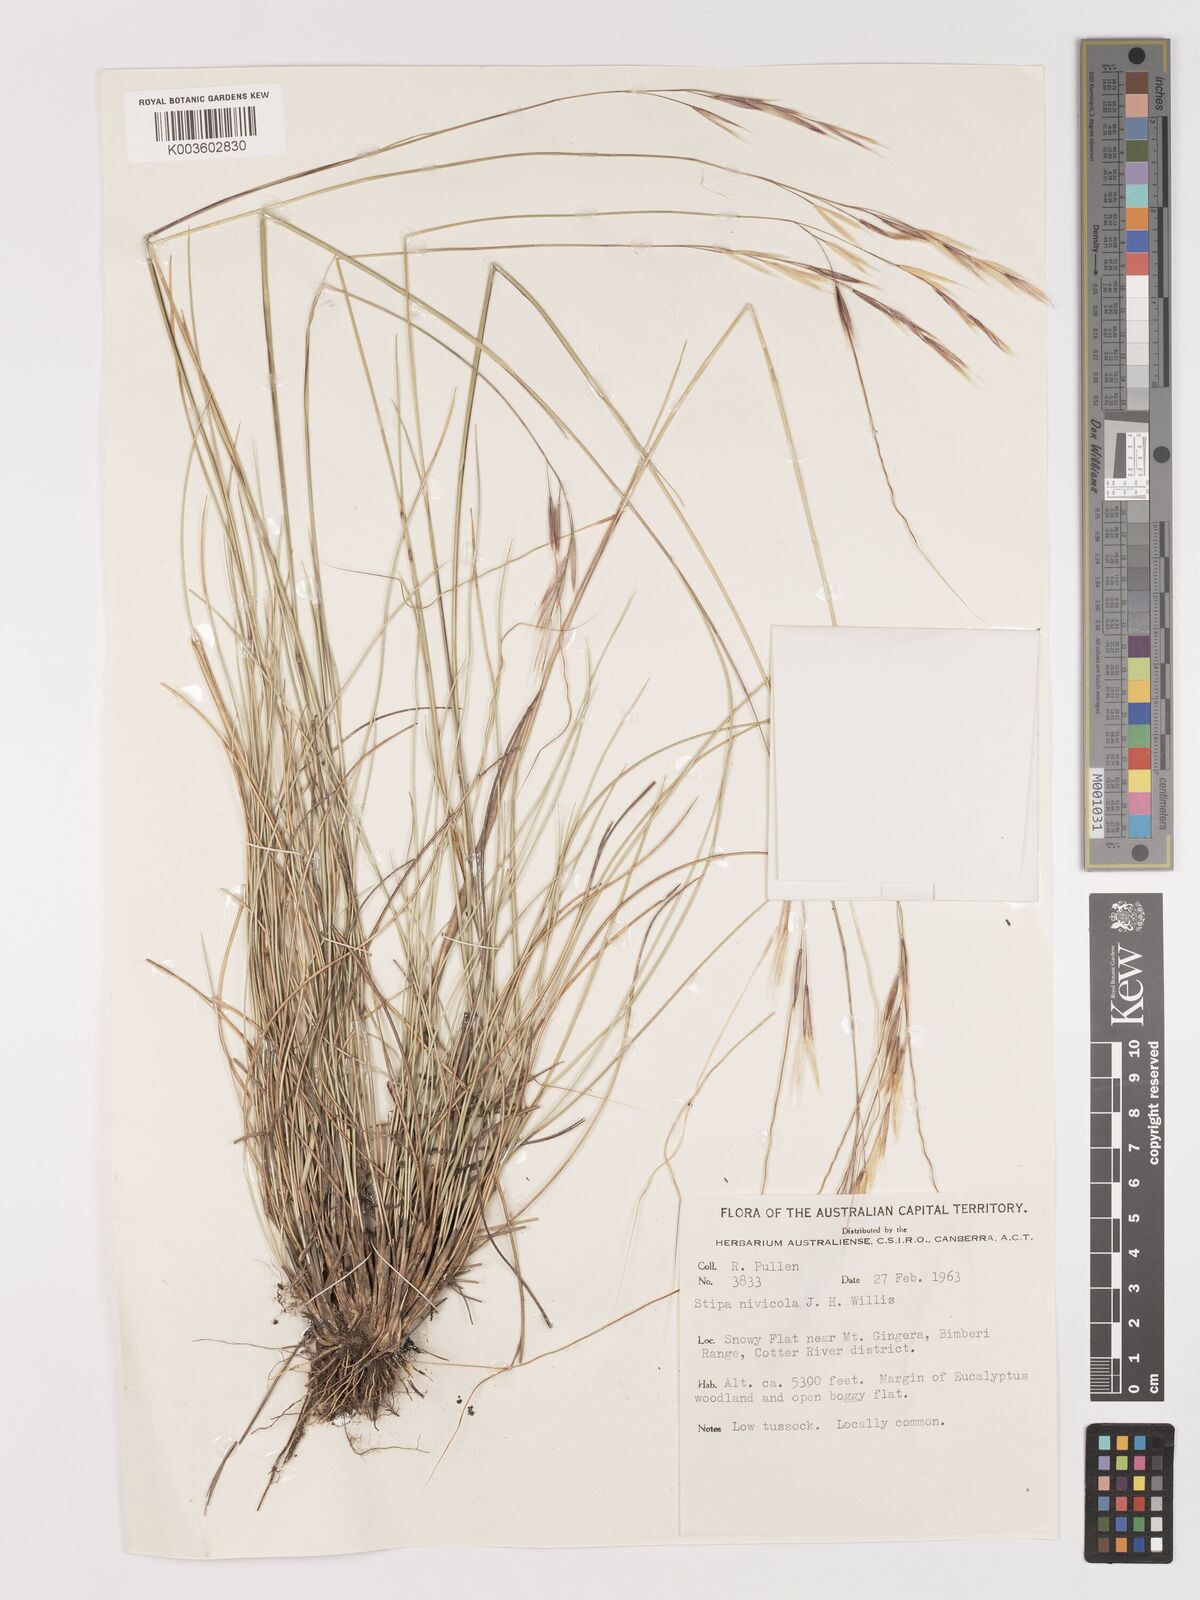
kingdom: Plantae
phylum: Tracheophyta
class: Liliopsida
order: Poales
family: Poaceae
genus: Austrostipa
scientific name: Austrostipa nivicola
